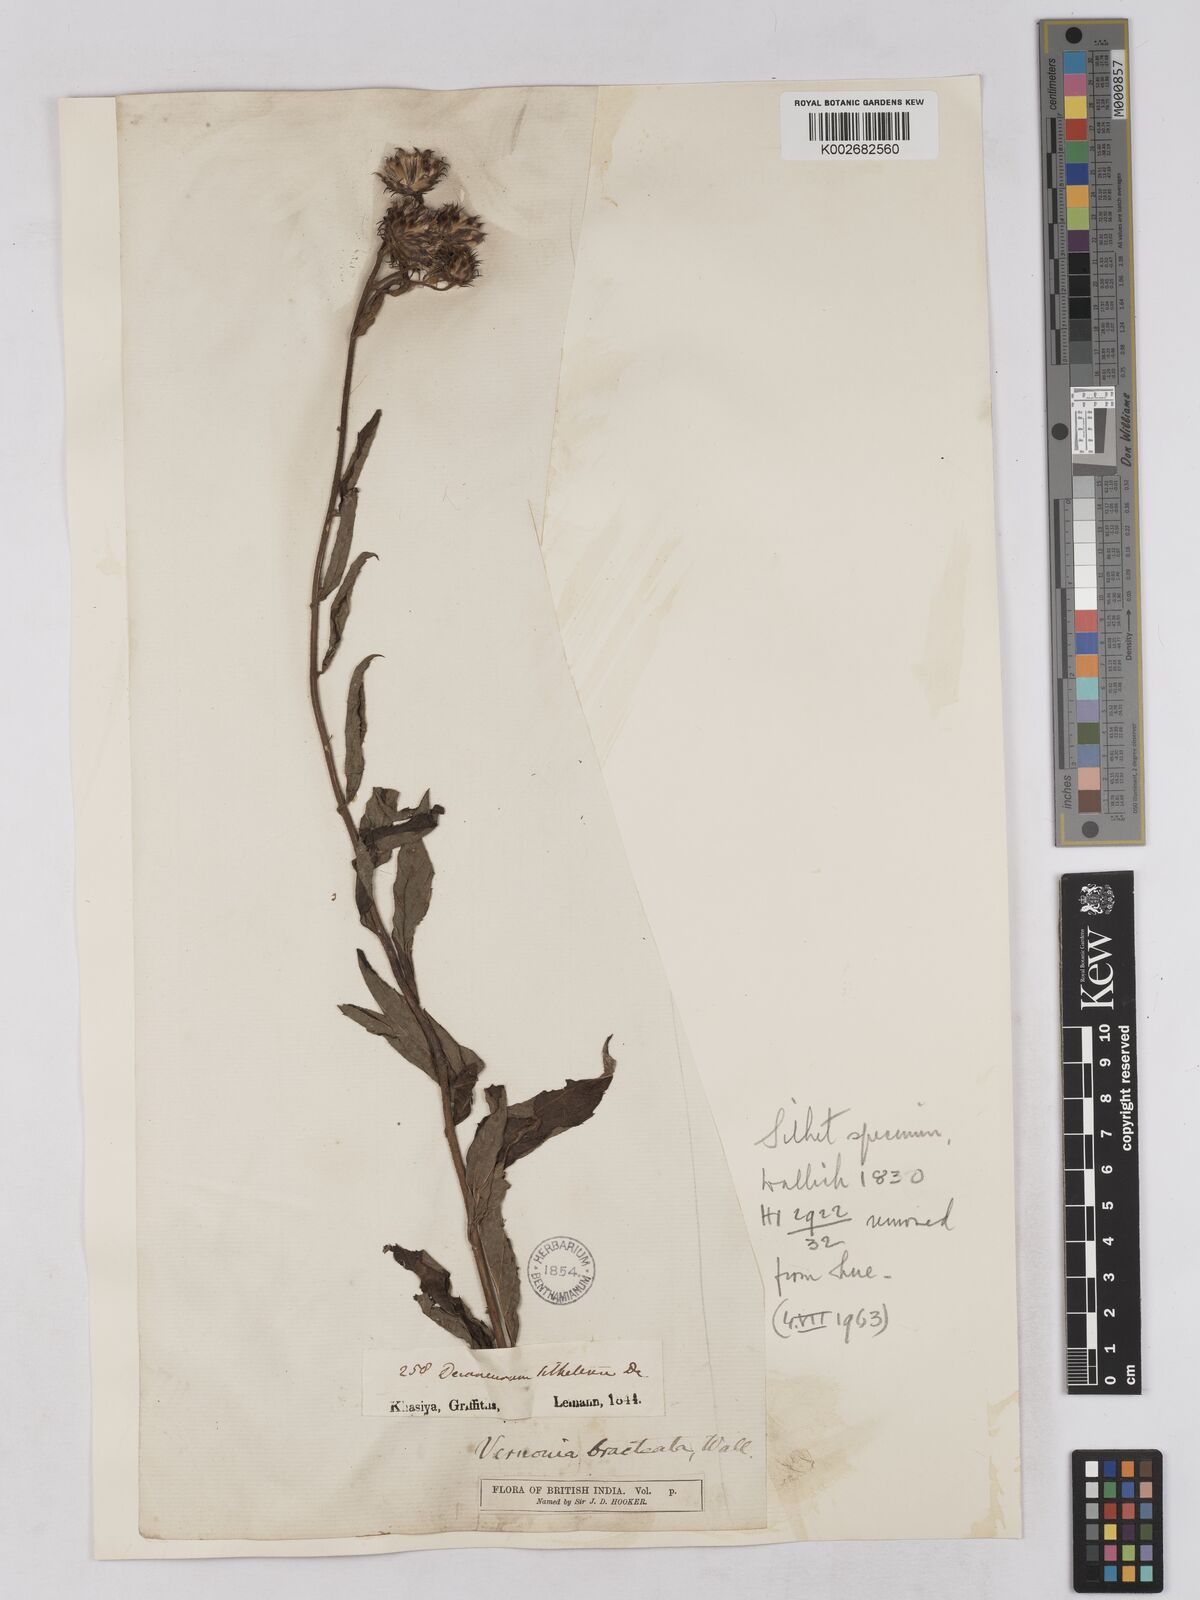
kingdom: Plantae
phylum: Tracheophyta
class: Magnoliopsida
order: Asterales
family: Asteraceae
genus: Acilepis
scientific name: Acilepis silhetensis
